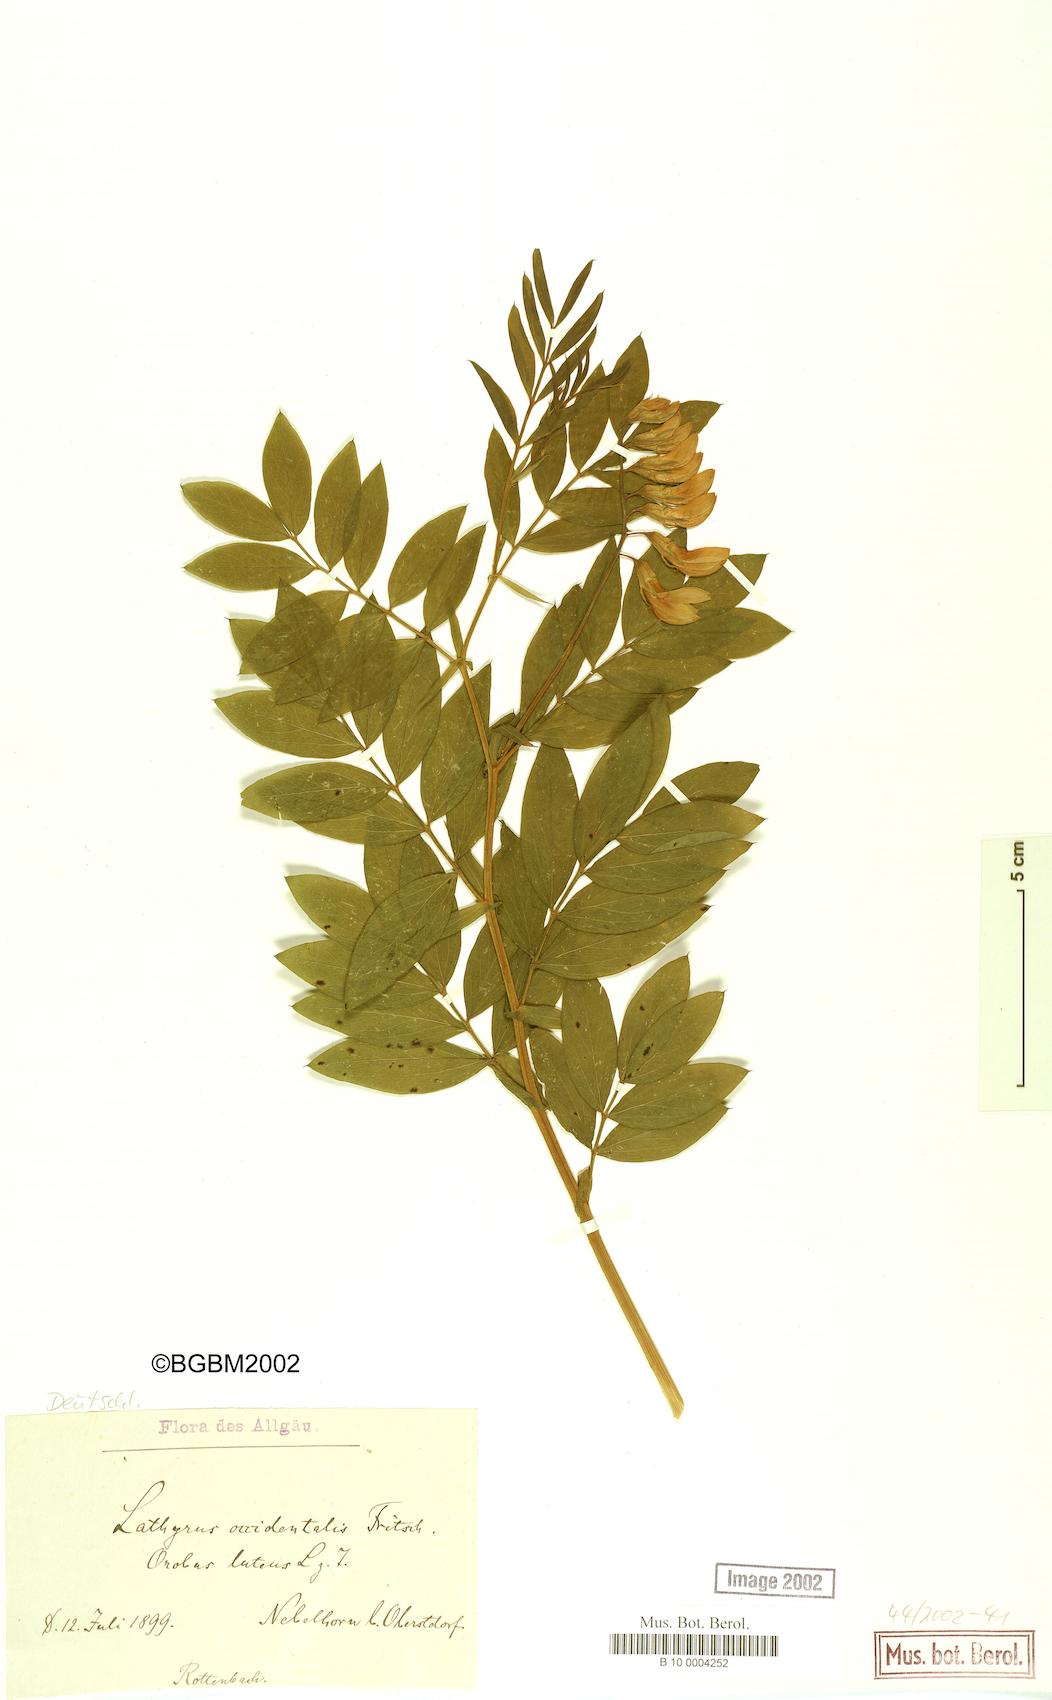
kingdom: Plantae
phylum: Tracheophyta
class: Magnoliopsida
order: Fabales
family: Fabaceae
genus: Lathyrus
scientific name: Lathyrus gmelinii
